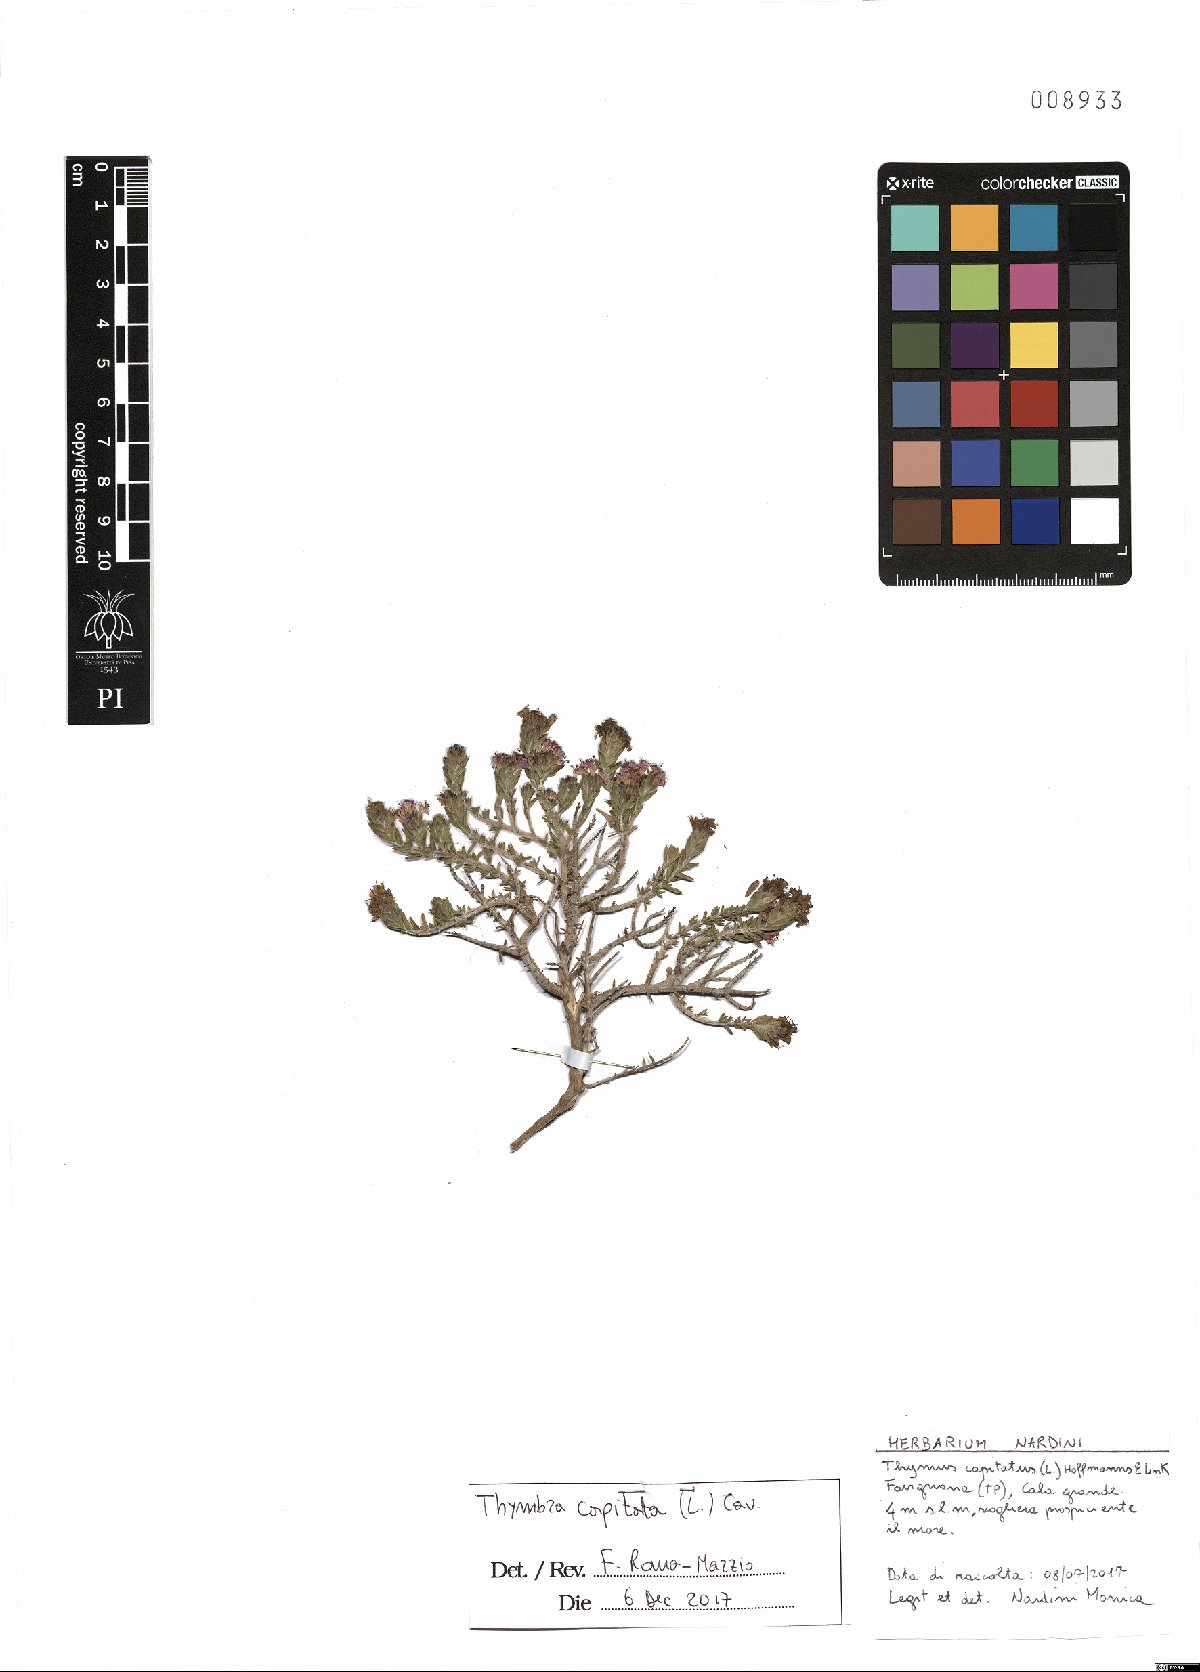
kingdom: Plantae
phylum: Tracheophyta
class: Magnoliopsida
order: Lamiales
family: Lamiaceae
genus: Thymbra
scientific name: Thymbra capitata
